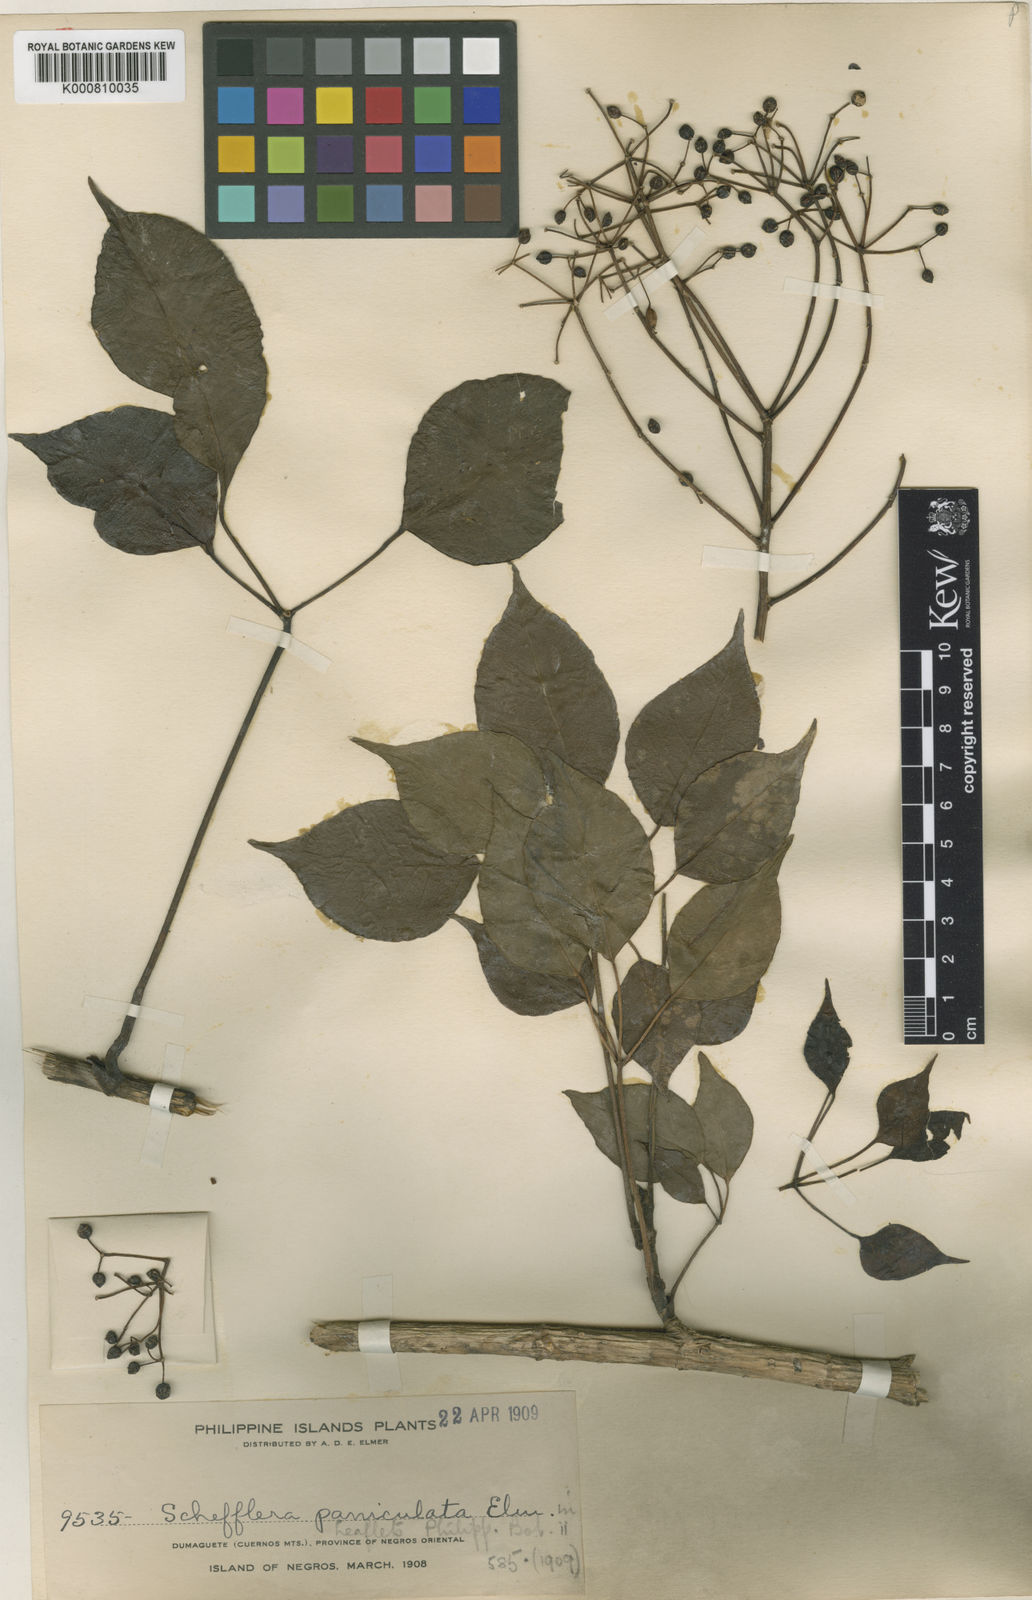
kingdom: Plantae
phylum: Tracheophyta
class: Magnoliopsida
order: Apiales
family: Araliaceae
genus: Heptapleurum
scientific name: Heptapleurum foetidum
